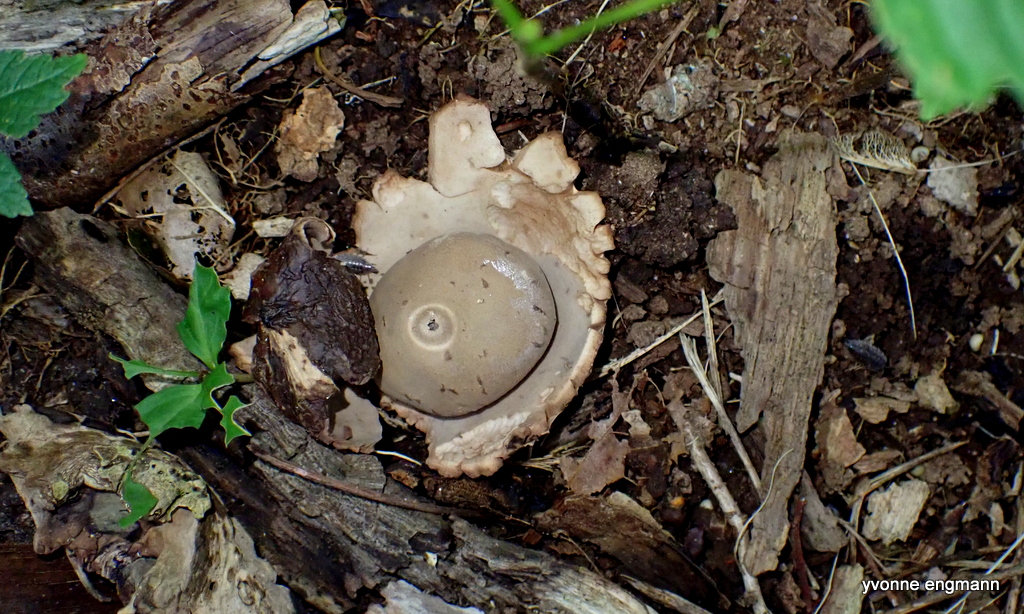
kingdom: Fungi
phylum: Basidiomycota
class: Agaricomycetes
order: Geastrales
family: Geastraceae
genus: Geastrum
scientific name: Geastrum michelianum
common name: kødet stjernebold
